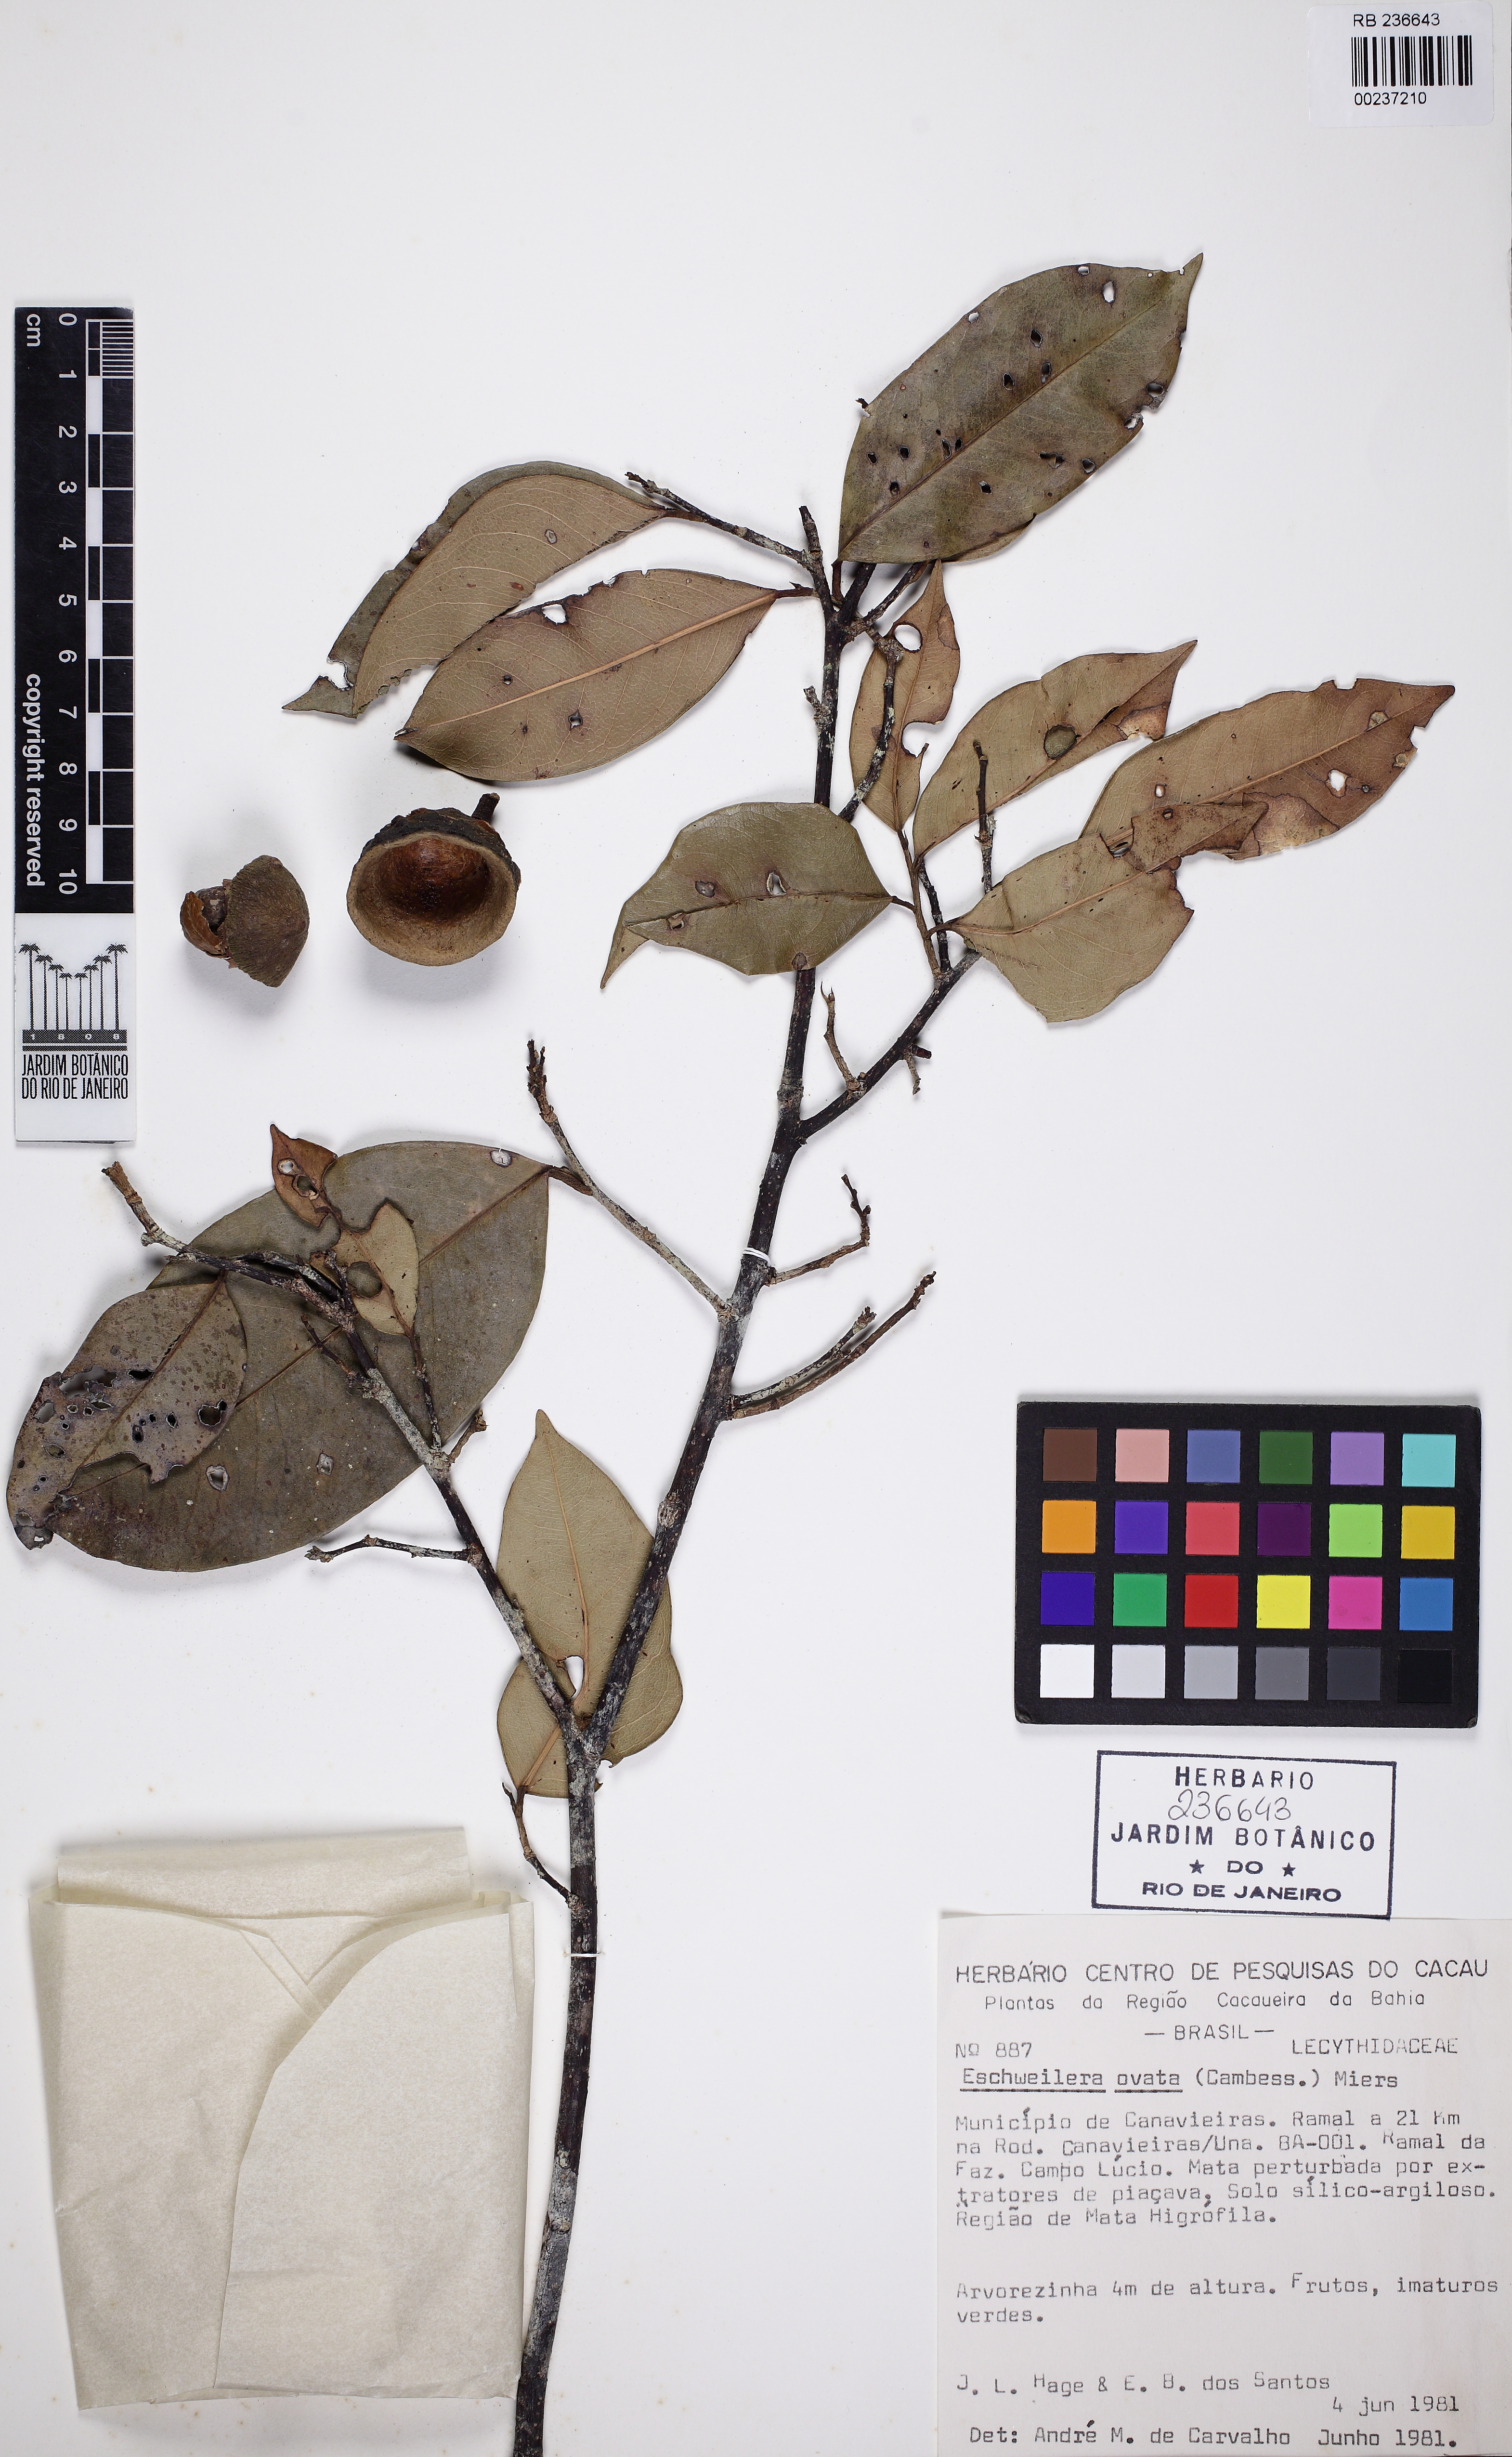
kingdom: Plantae
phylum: Tracheophyta
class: Magnoliopsida
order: Ericales
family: Lecythidaceae
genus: Eschweilera
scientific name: Eschweilera ovata
